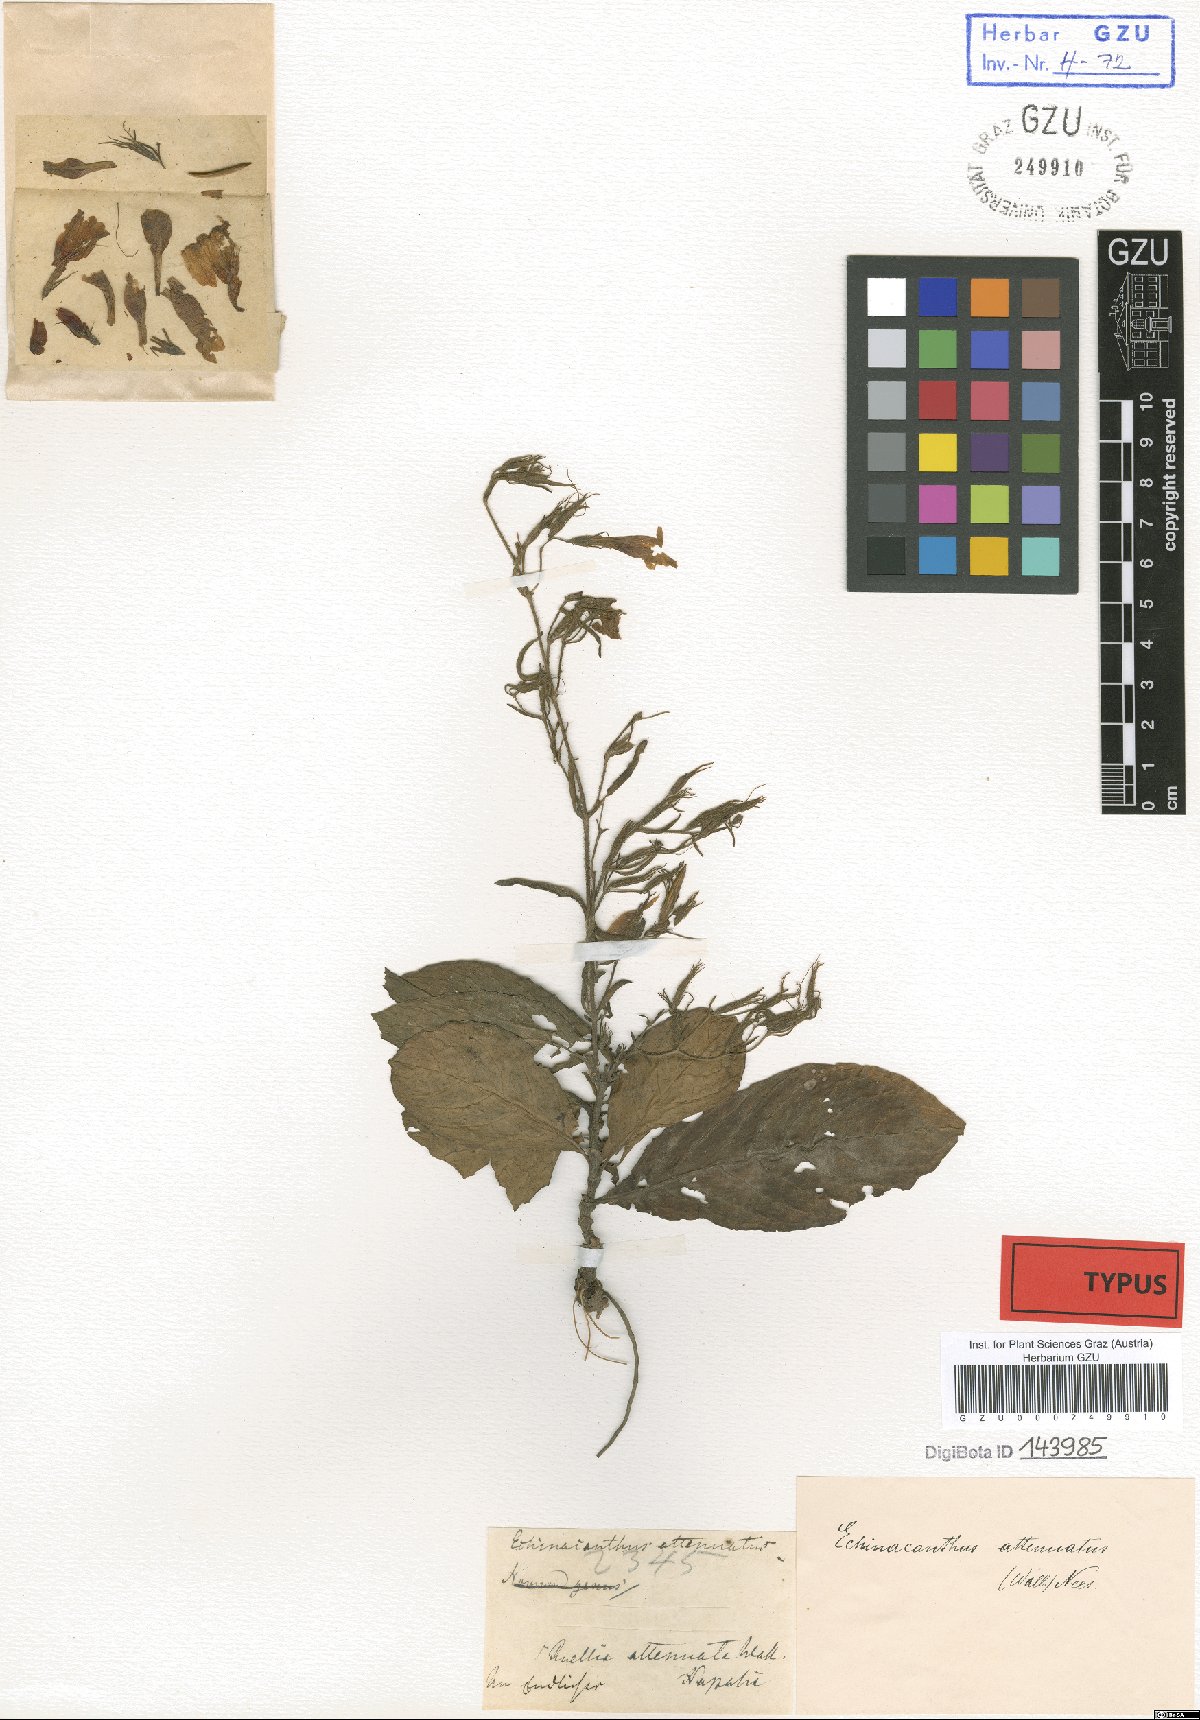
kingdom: Plantae
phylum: Tracheophyta
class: Magnoliopsida
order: Lamiales
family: Acanthaceae
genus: Echinacanthus
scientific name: Echinacanthus attenuatus
